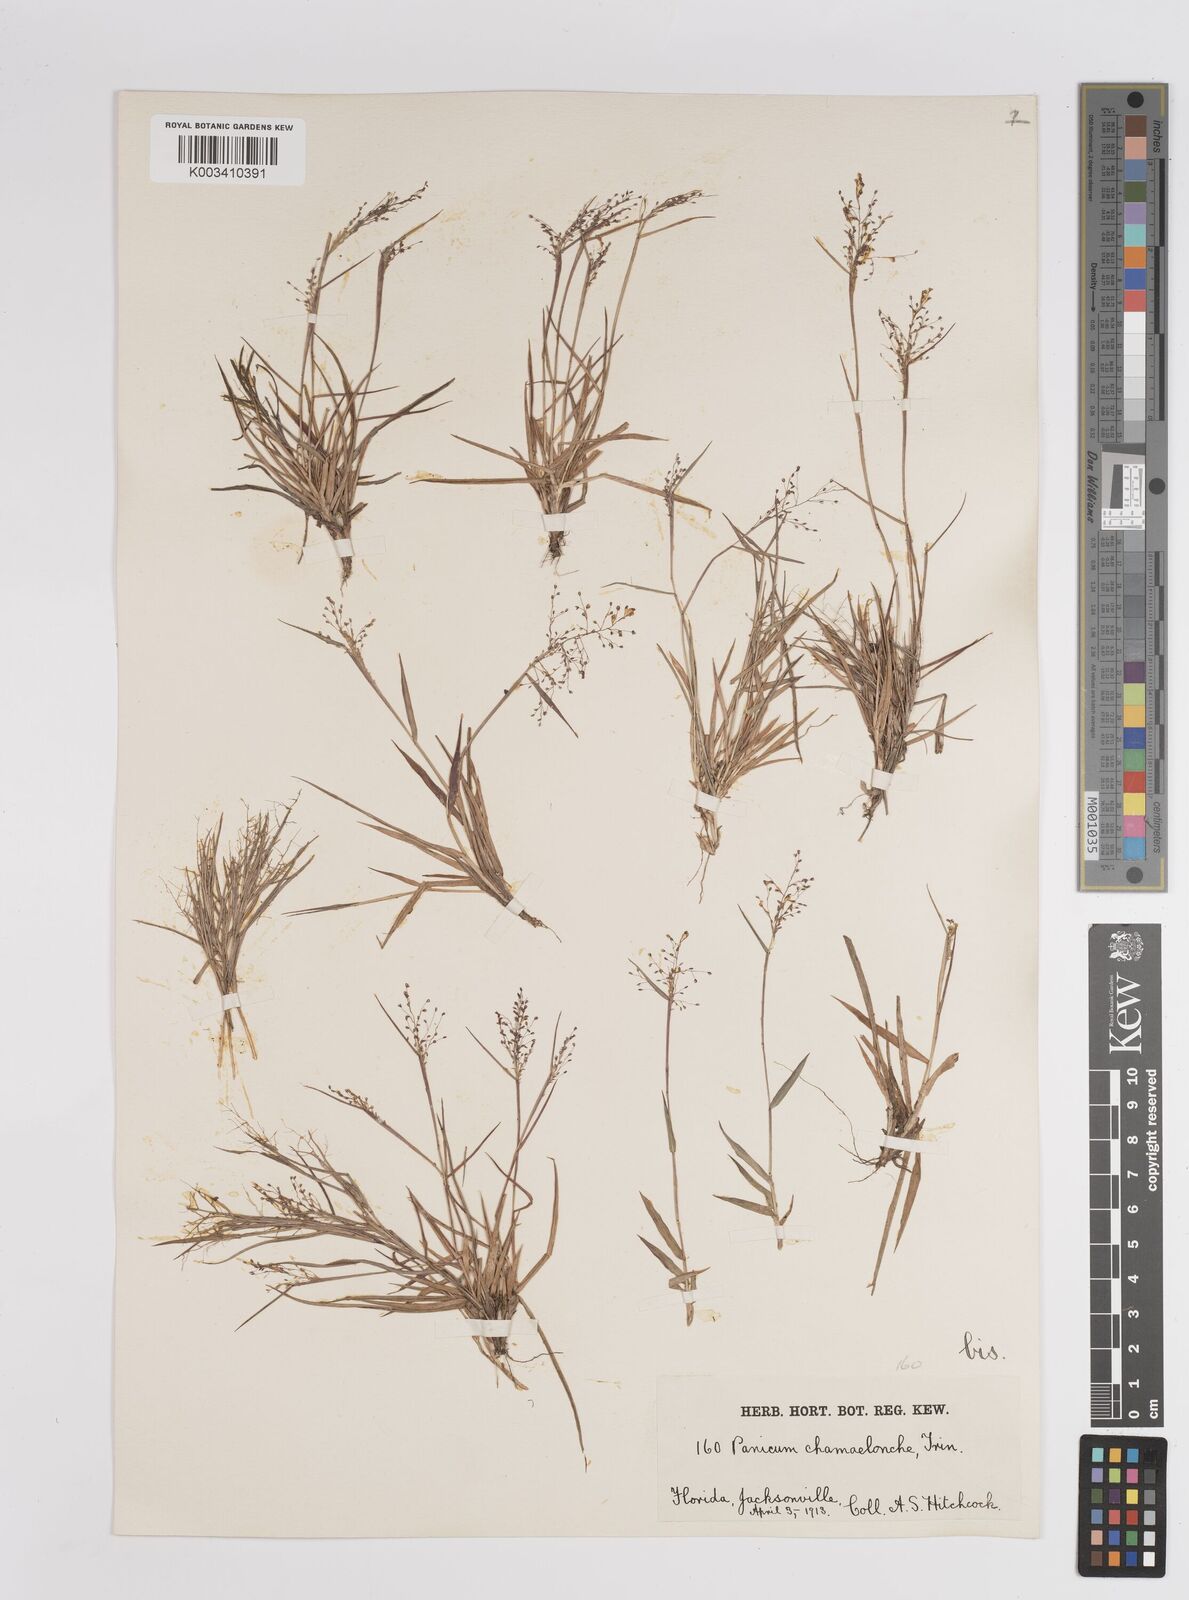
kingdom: Plantae
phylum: Tracheophyta
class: Liliopsida
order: Poales
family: Poaceae
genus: Dichanthelium
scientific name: Dichanthelium chamaelonche
